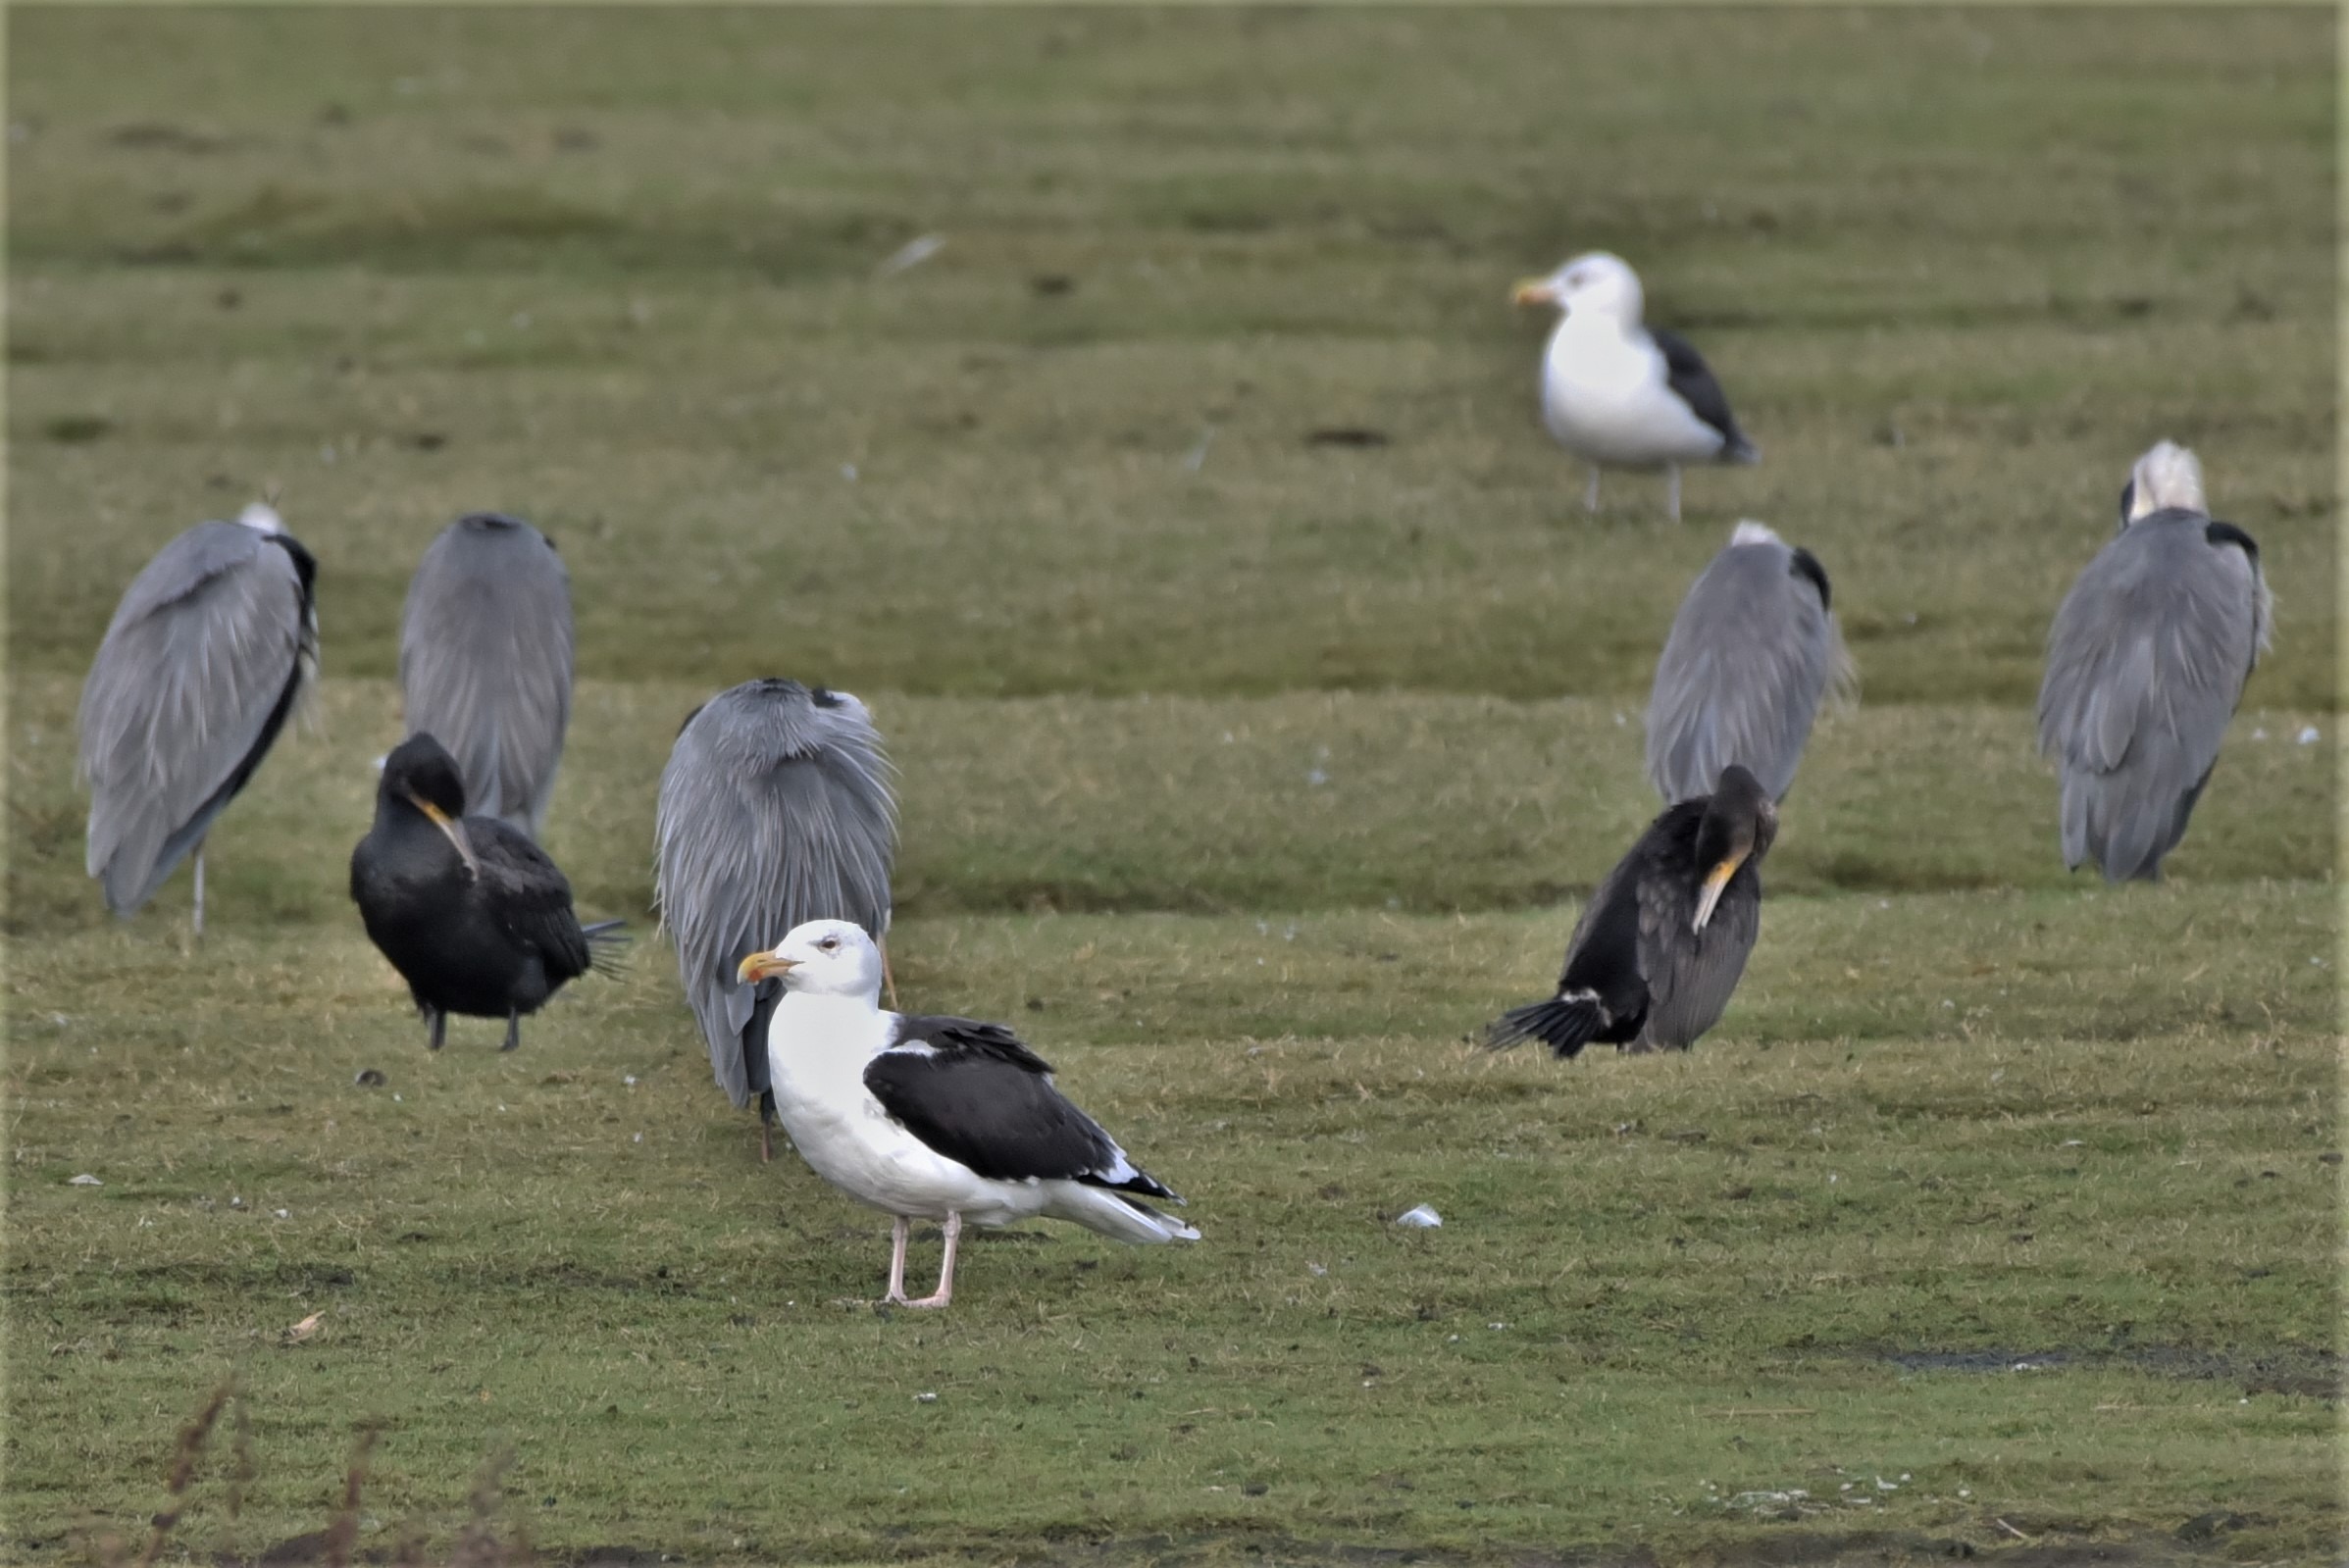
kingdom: Animalia
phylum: Chordata
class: Aves
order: Charadriiformes
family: Laridae
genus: Larus
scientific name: Larus marinus
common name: Svartbag
